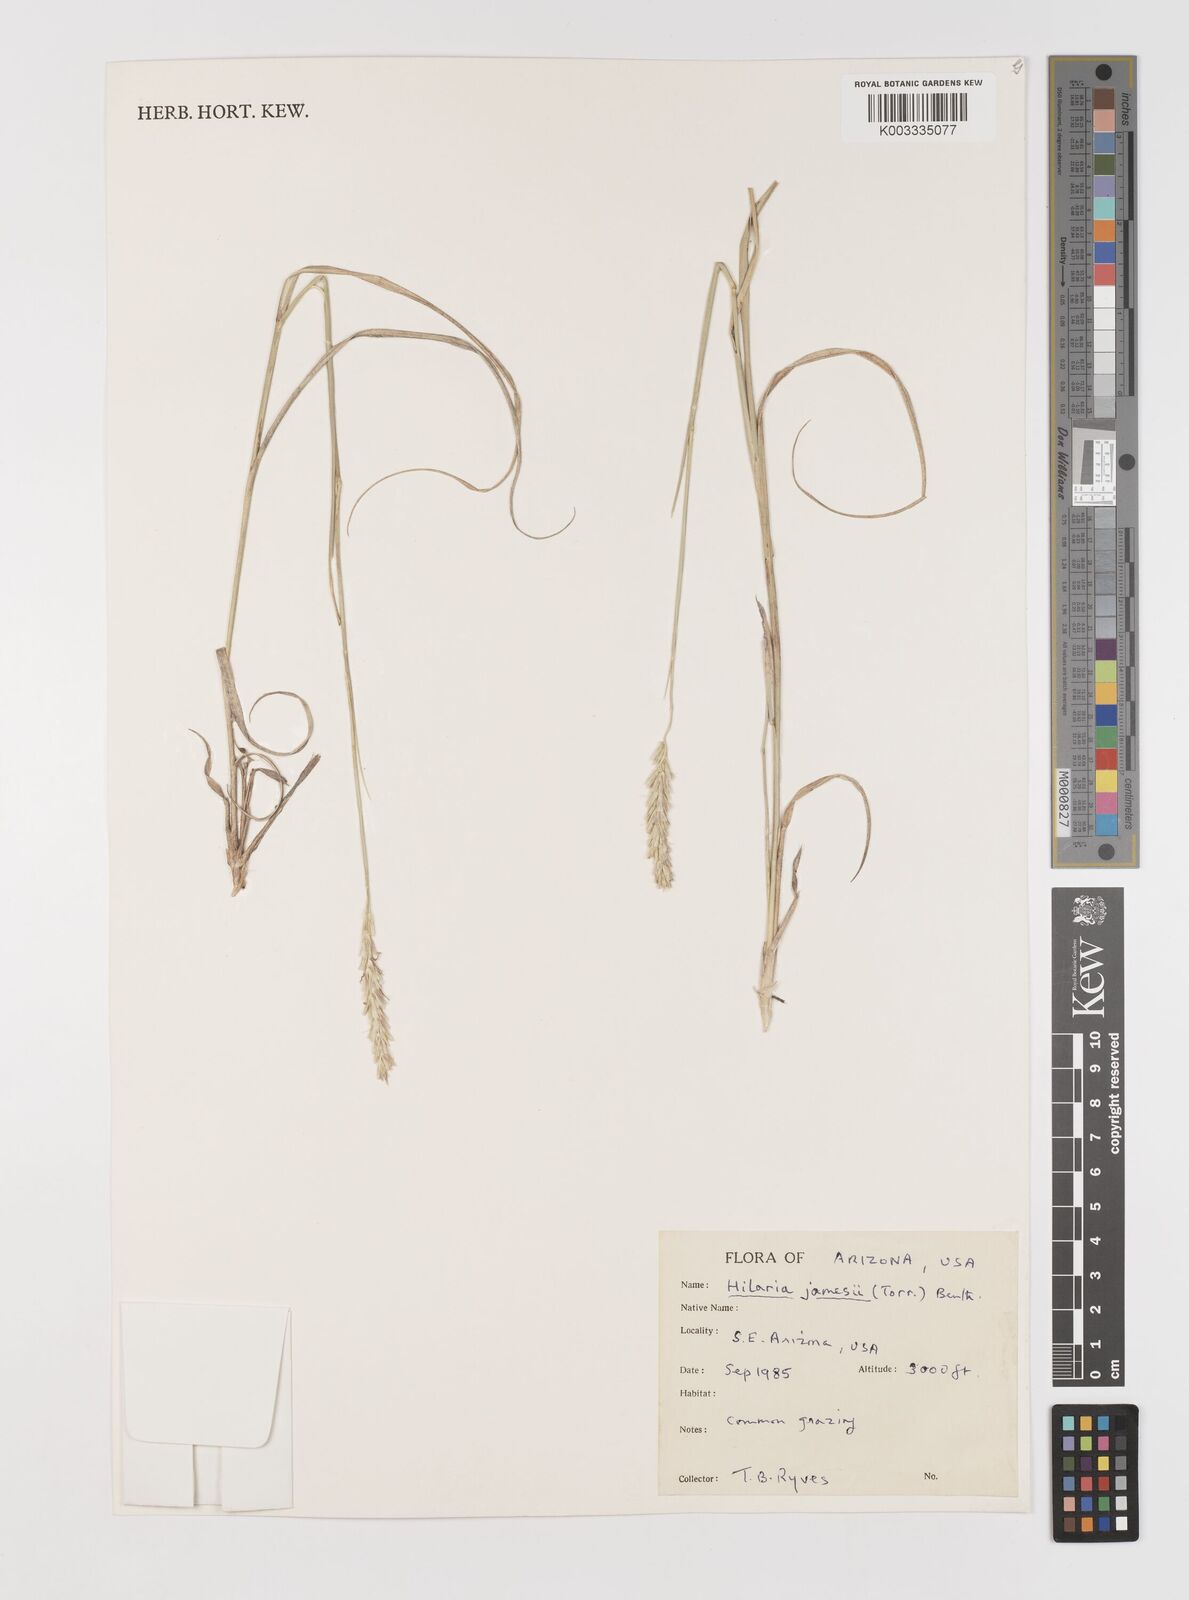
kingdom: Plantae
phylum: Tracheophyta
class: Liliopsida
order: Poales
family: Poaceae
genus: Hilaria
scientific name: Hilaria jamesii
